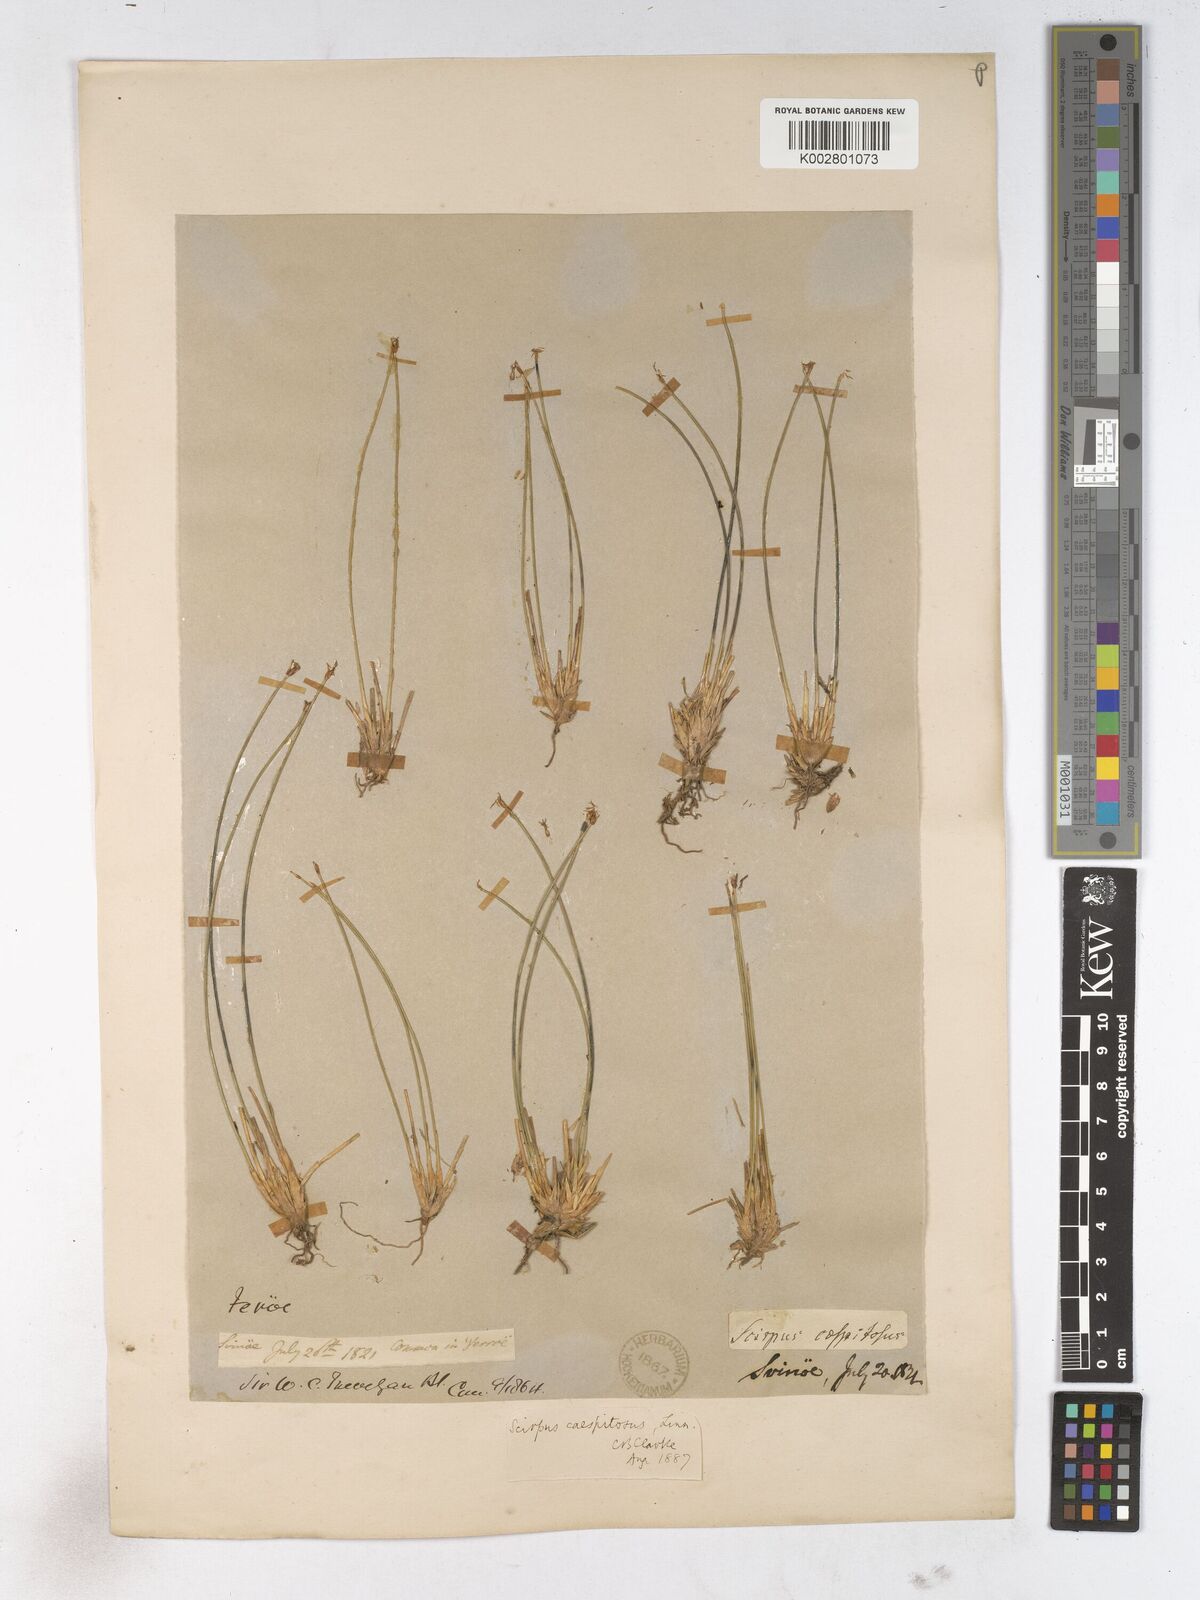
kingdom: Plantae
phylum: Tracheophyta
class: Liliopsida
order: Poales
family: Cyperaceae
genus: Trichophorum
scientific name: Trichophorum cespitosum
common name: Cespitose bulrush
